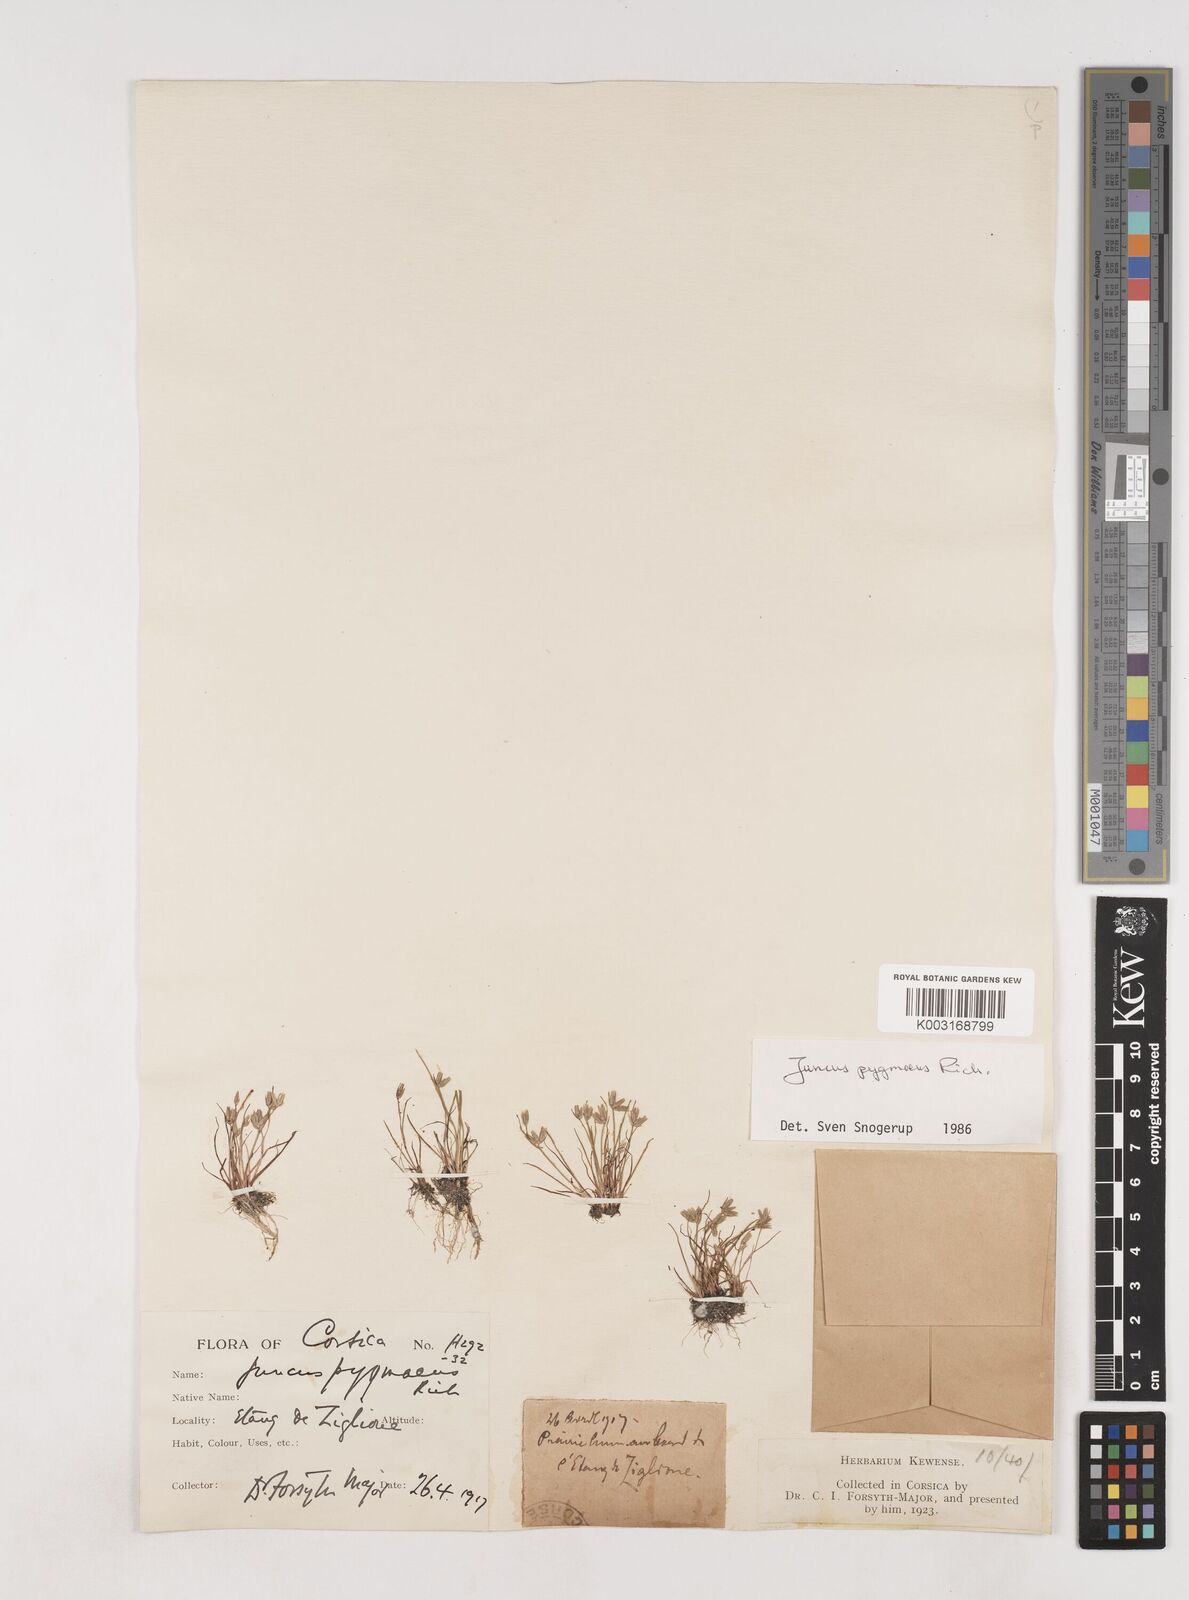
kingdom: Plantae
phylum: Tracheophyta
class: Liliopsida
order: Poales
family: Juncaceae
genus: Juncus
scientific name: Juncus pygmaeus
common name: Pigmy rush
